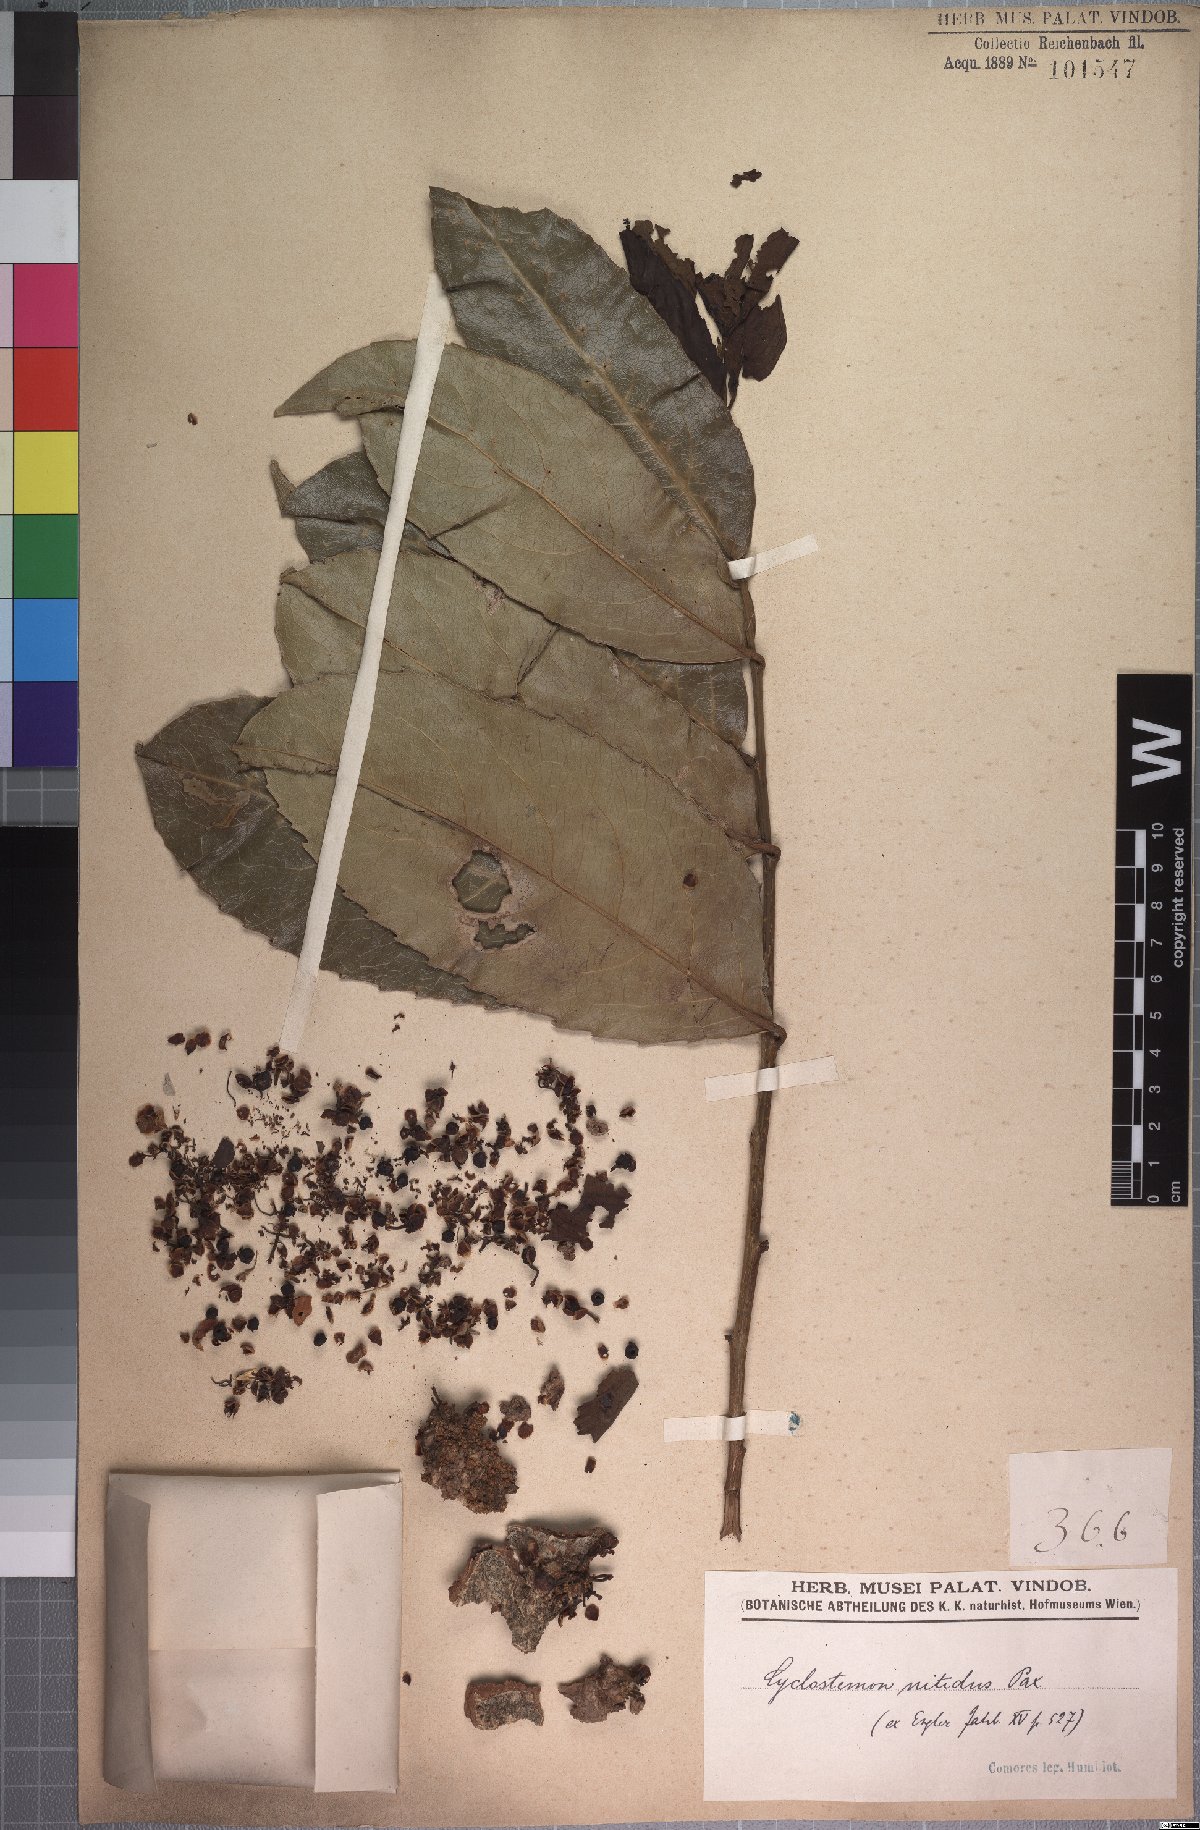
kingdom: Plantae
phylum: Tracheophyta
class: Magnoliopsida
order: Malpighiales
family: Putranjivaceae
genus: Drypetes
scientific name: Drypetes comorensis
